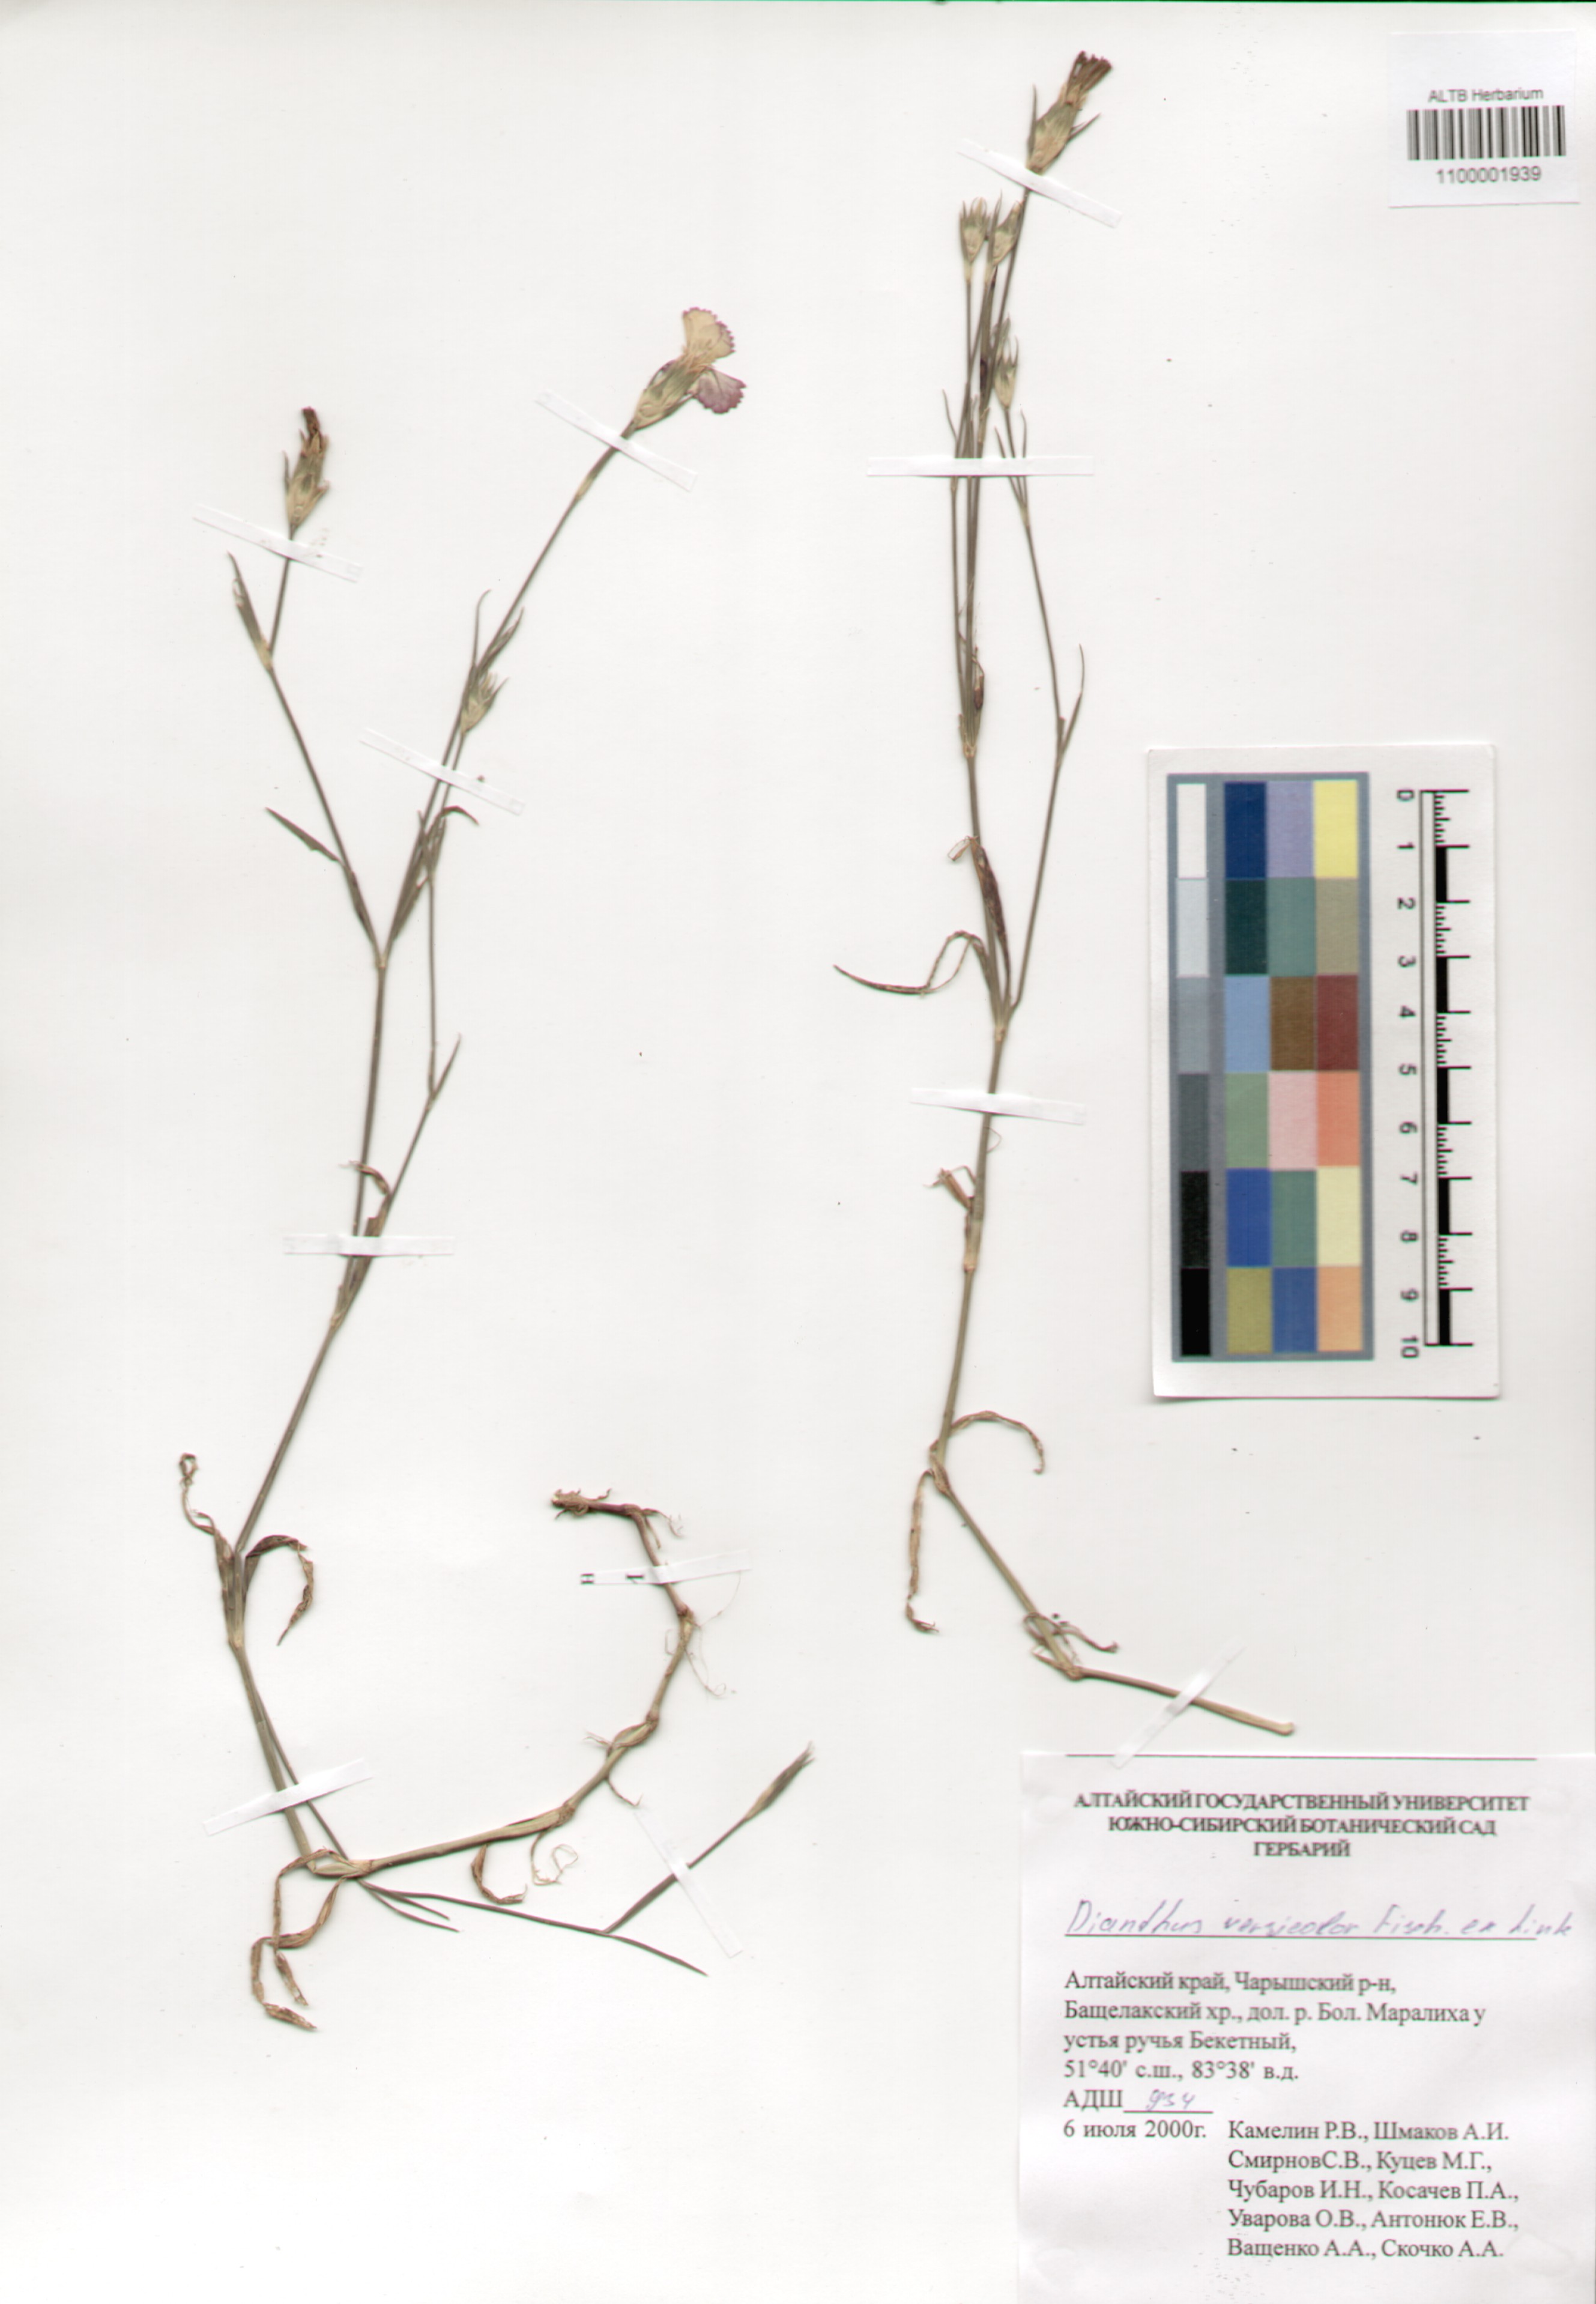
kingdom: Plantae
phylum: Tracheophyta
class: Magnoliopsida
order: Caryophyllales
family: Caryophyllaceae
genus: Dianthus
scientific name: Dianthus chinensis
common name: Rainbow pink
